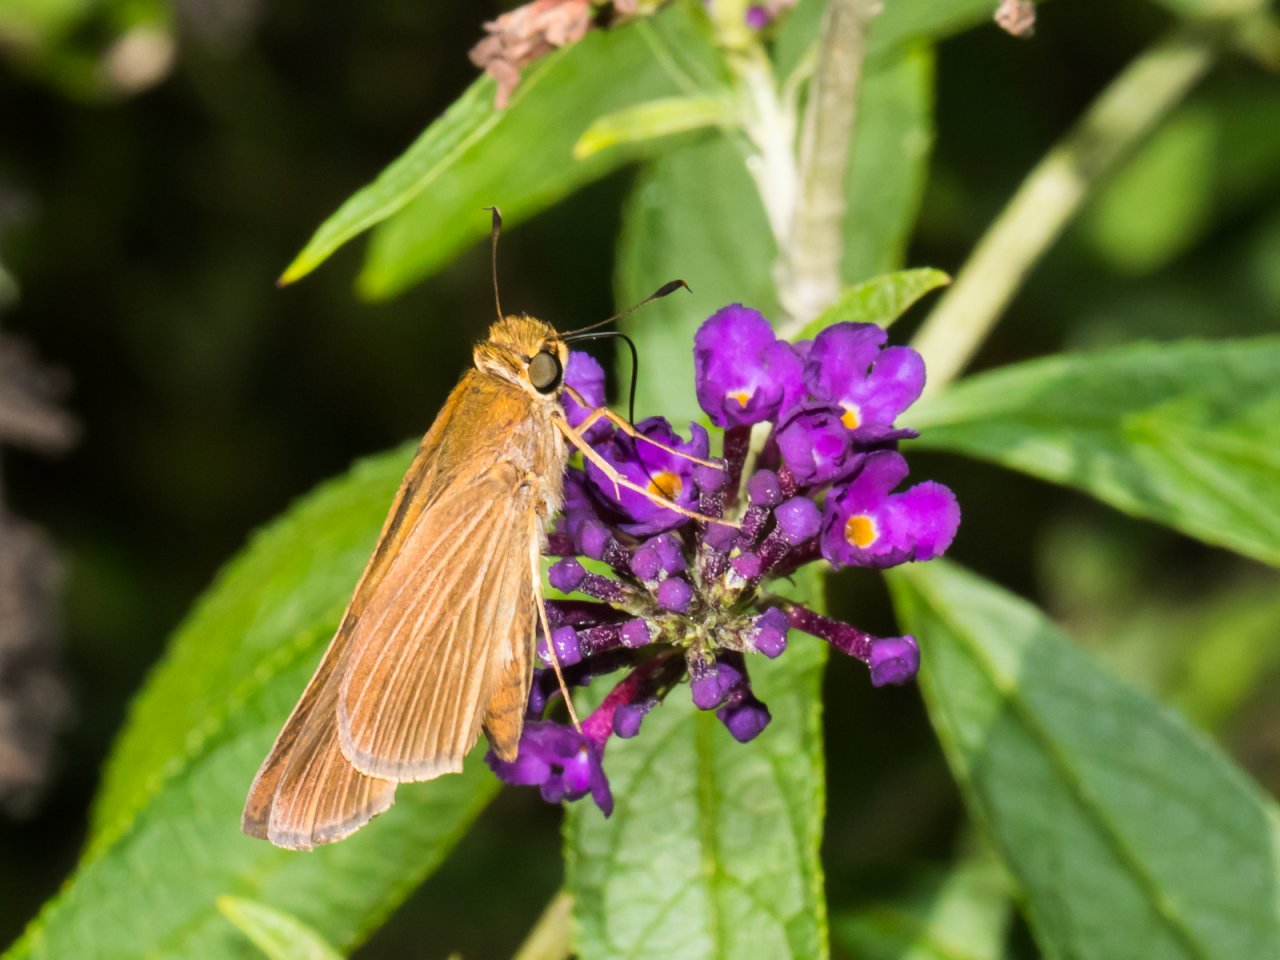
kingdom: Animalia
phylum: Arthropoda
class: Insecta
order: Lepidoptera
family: Hesperiidae
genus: Panoquina
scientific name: Panoquina ocola
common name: Ocola Skipper
